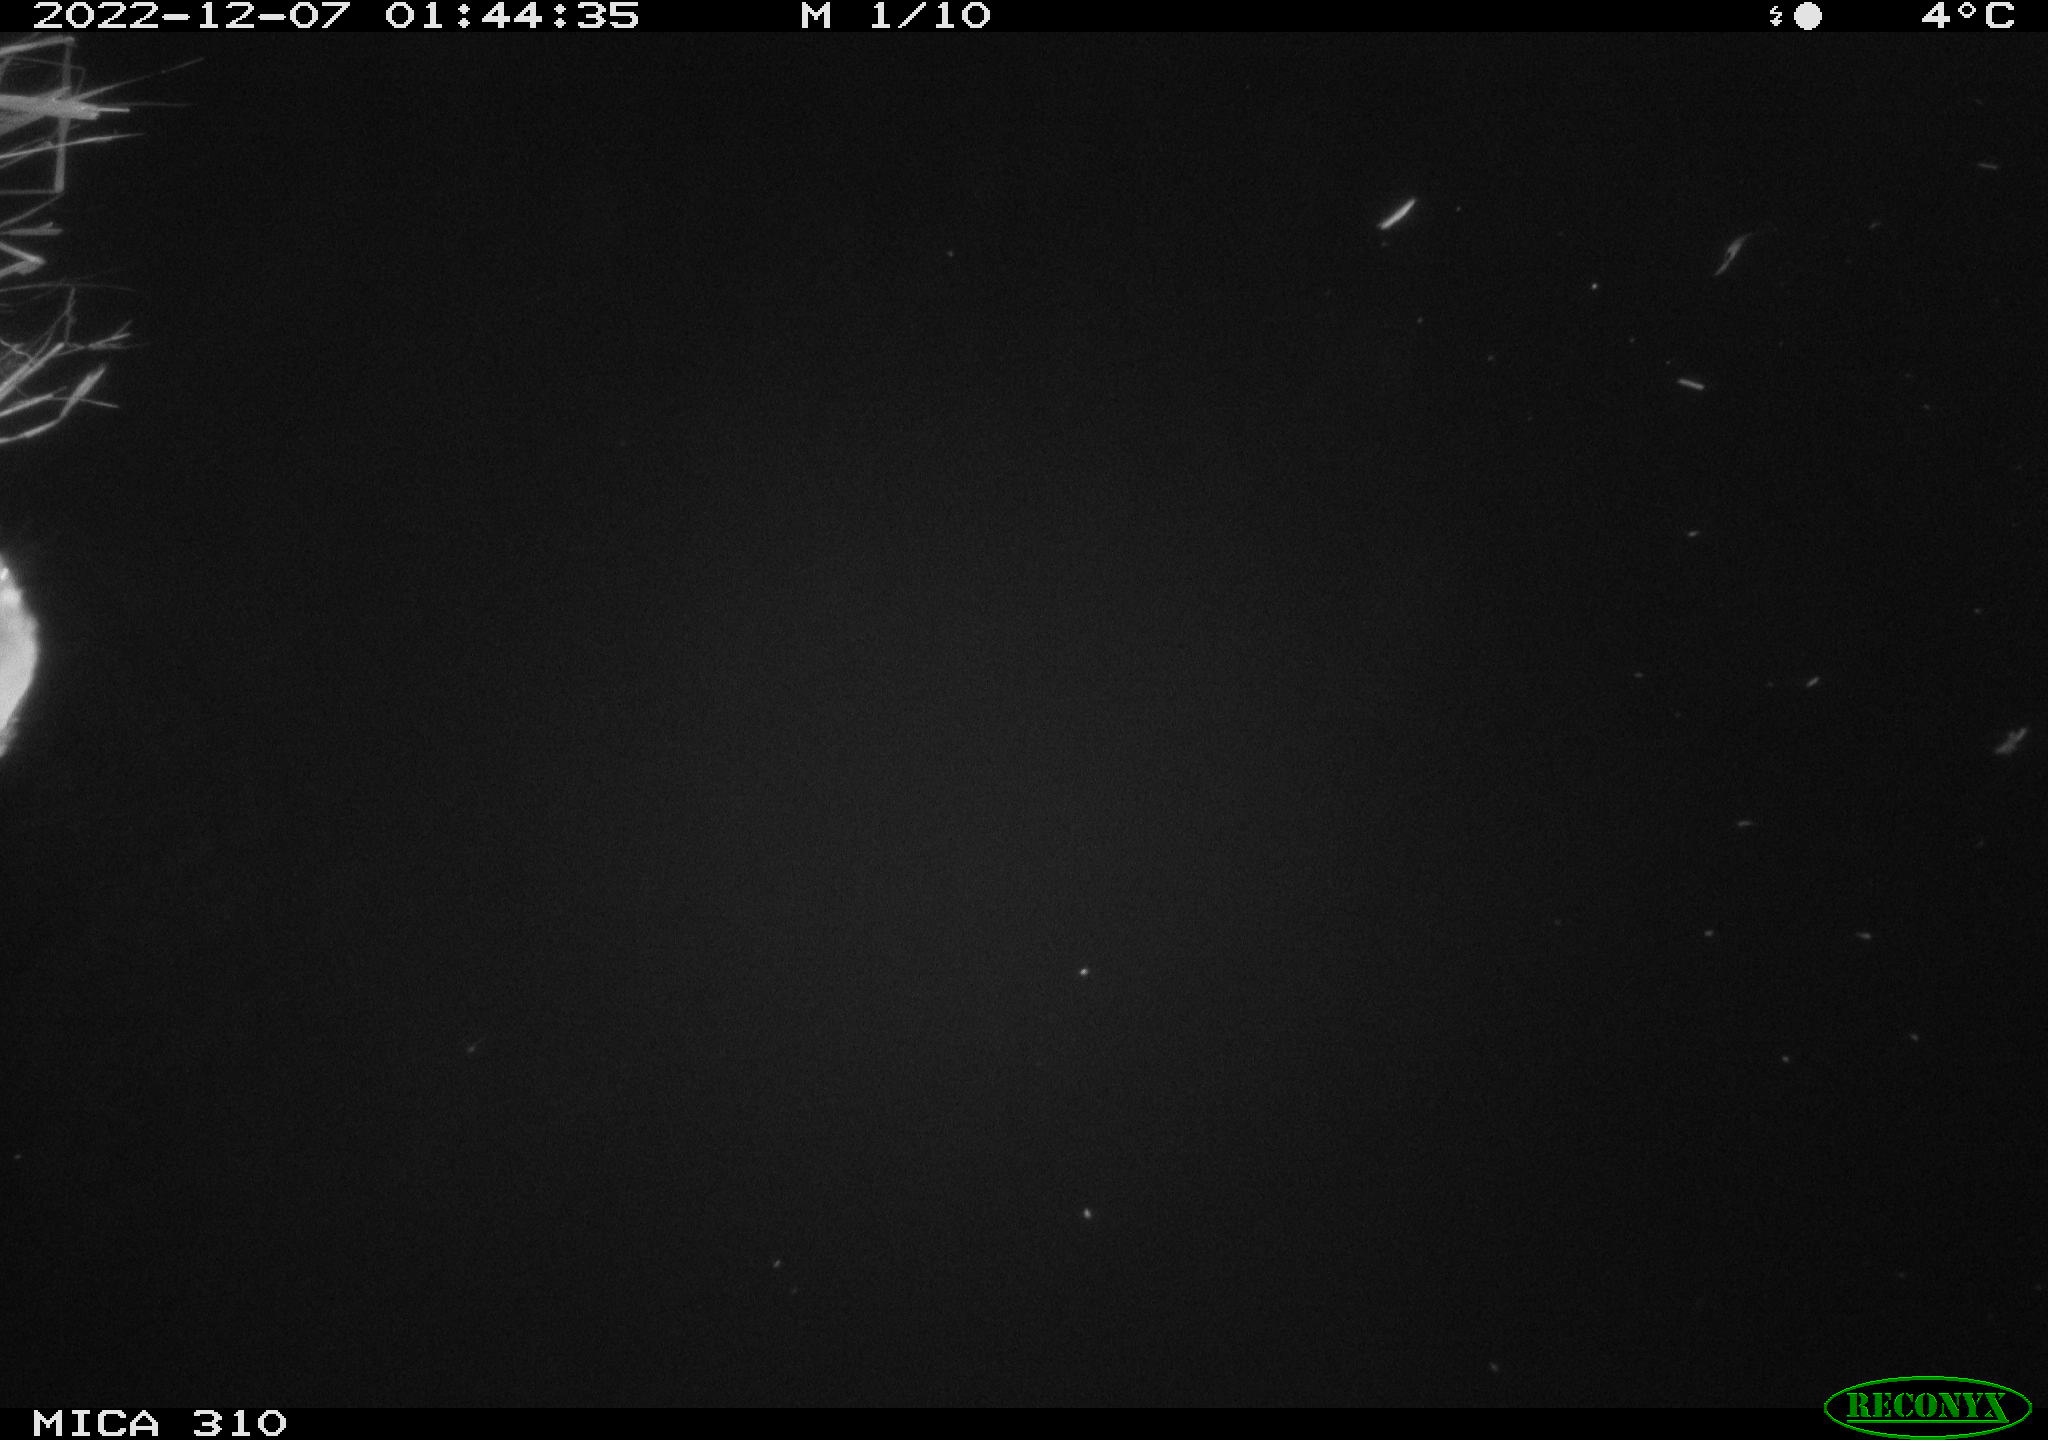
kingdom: Animalia
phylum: Chordata
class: Mammalia
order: Rodentia
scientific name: Rodentia
